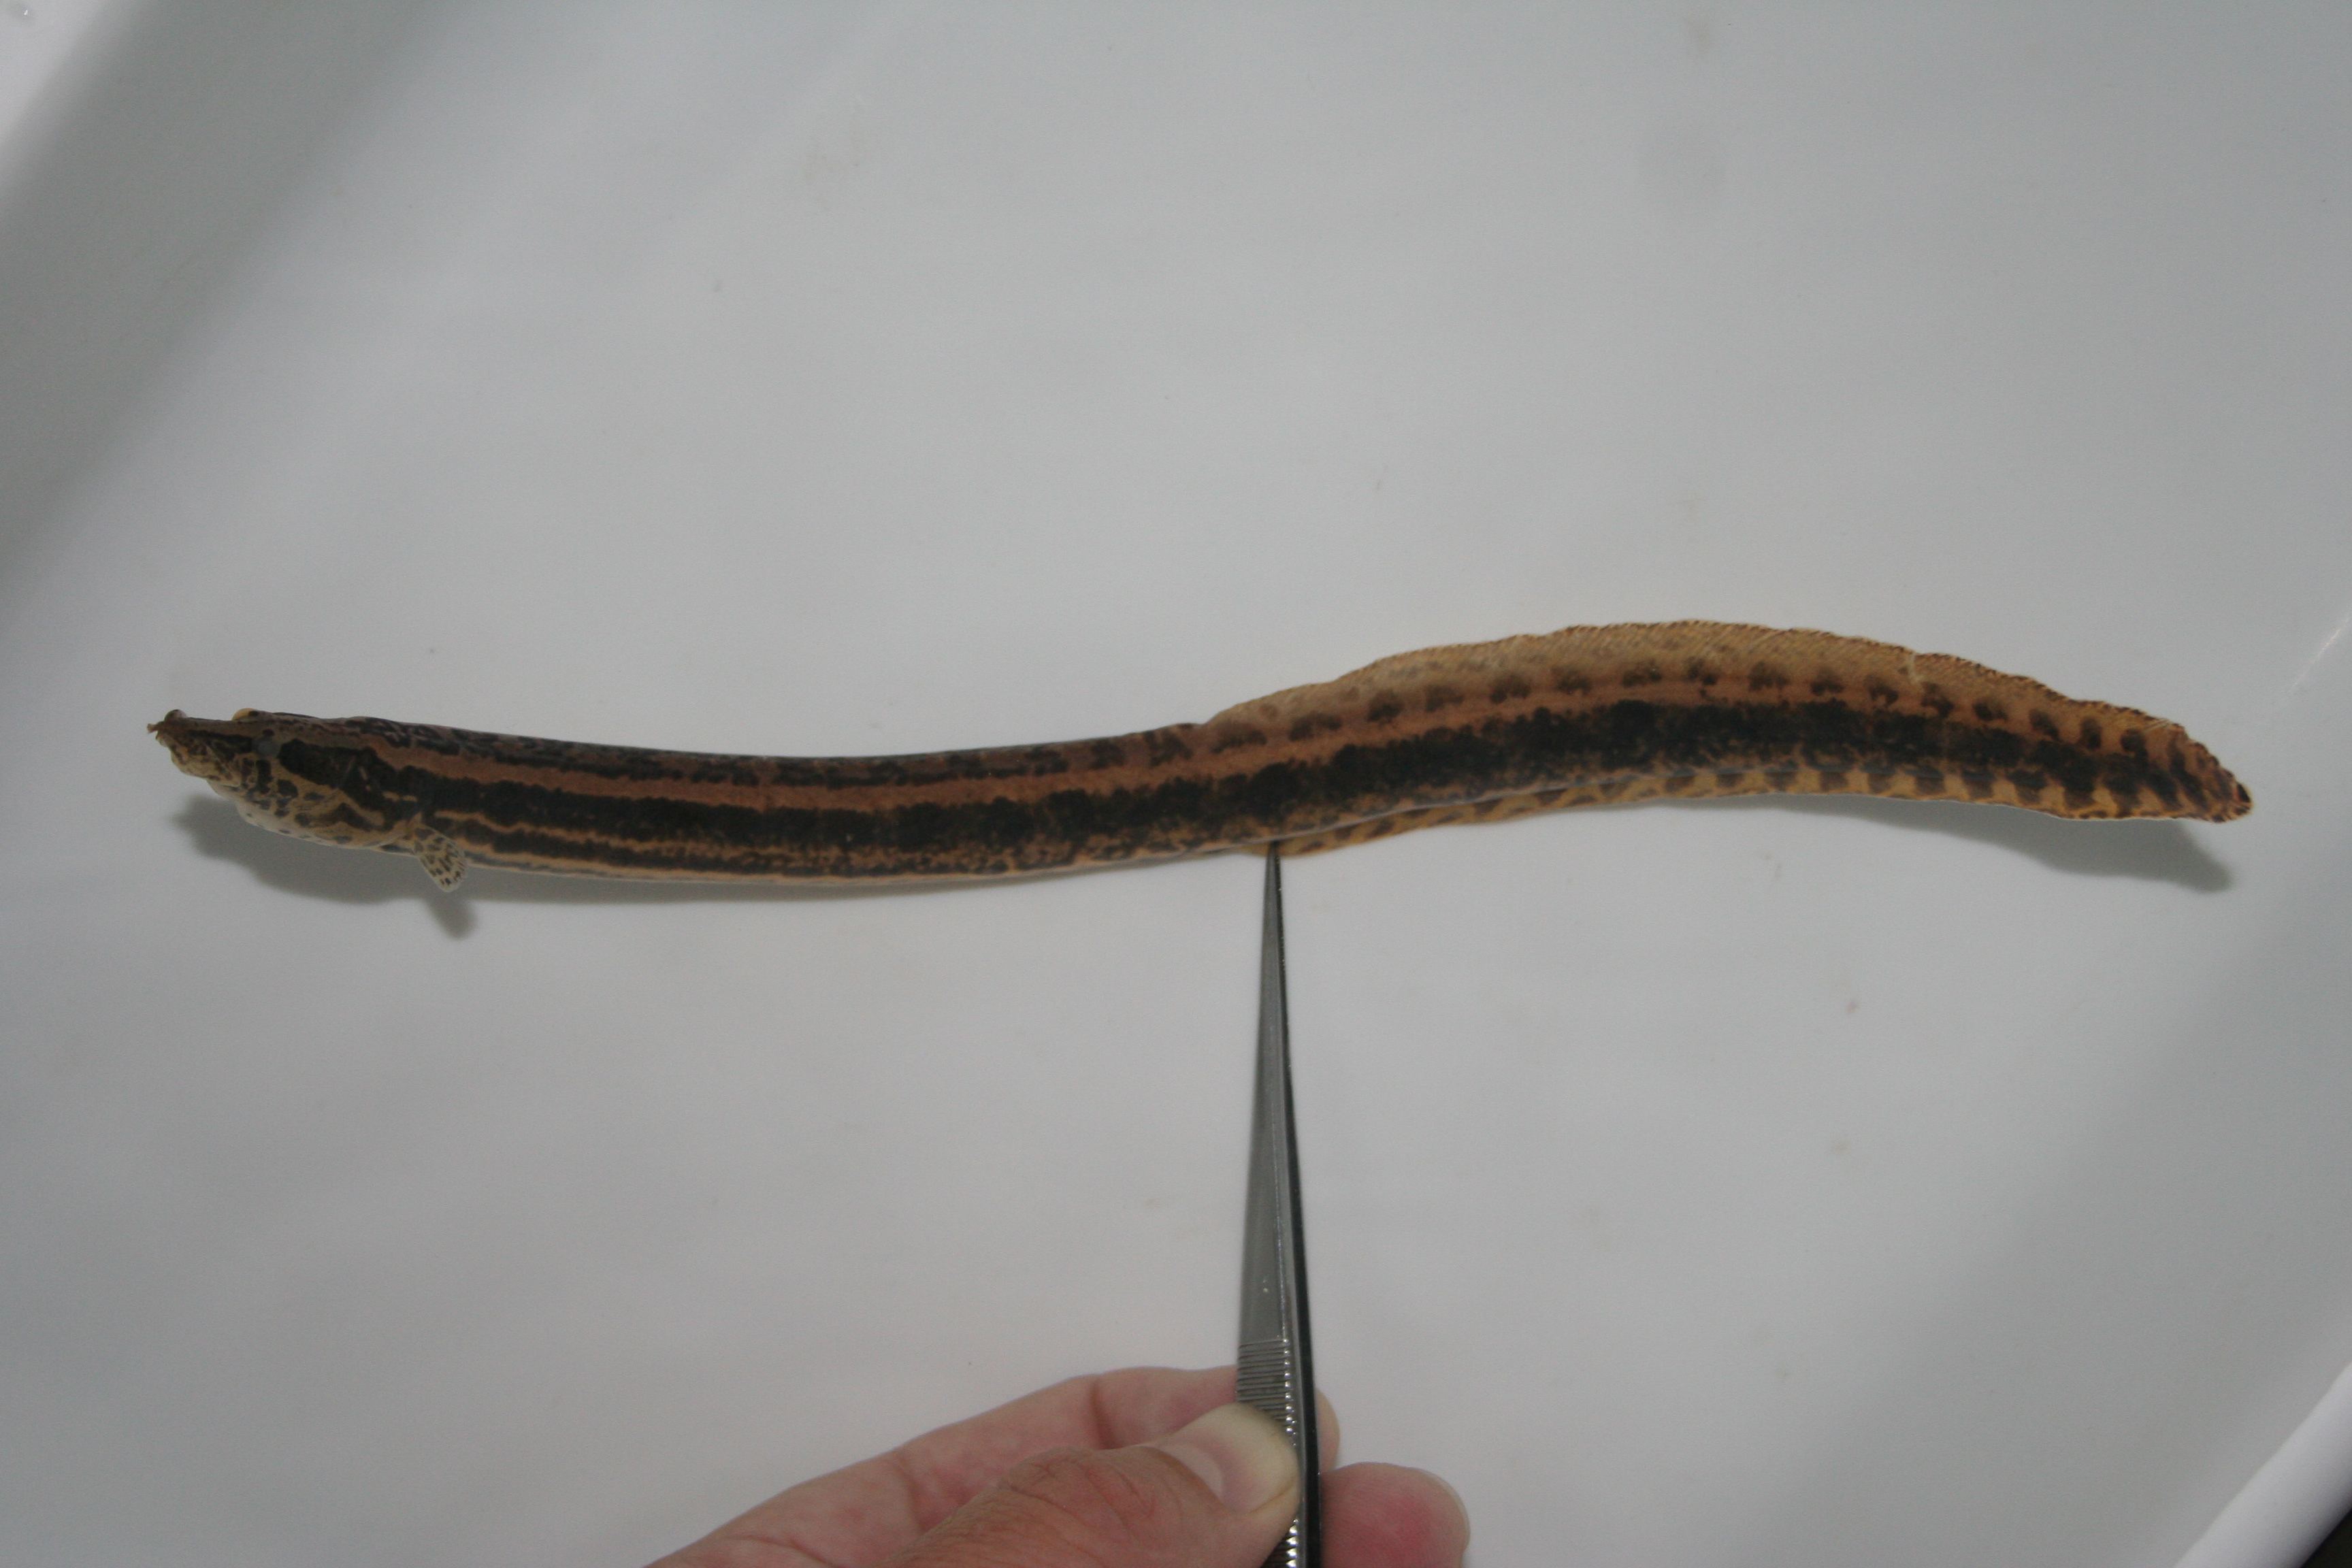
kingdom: Animalia
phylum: Chordata
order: Synbranchiformes
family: Mastacembelidae
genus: Mastacembelus
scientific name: Mastacembelus ansorgii
